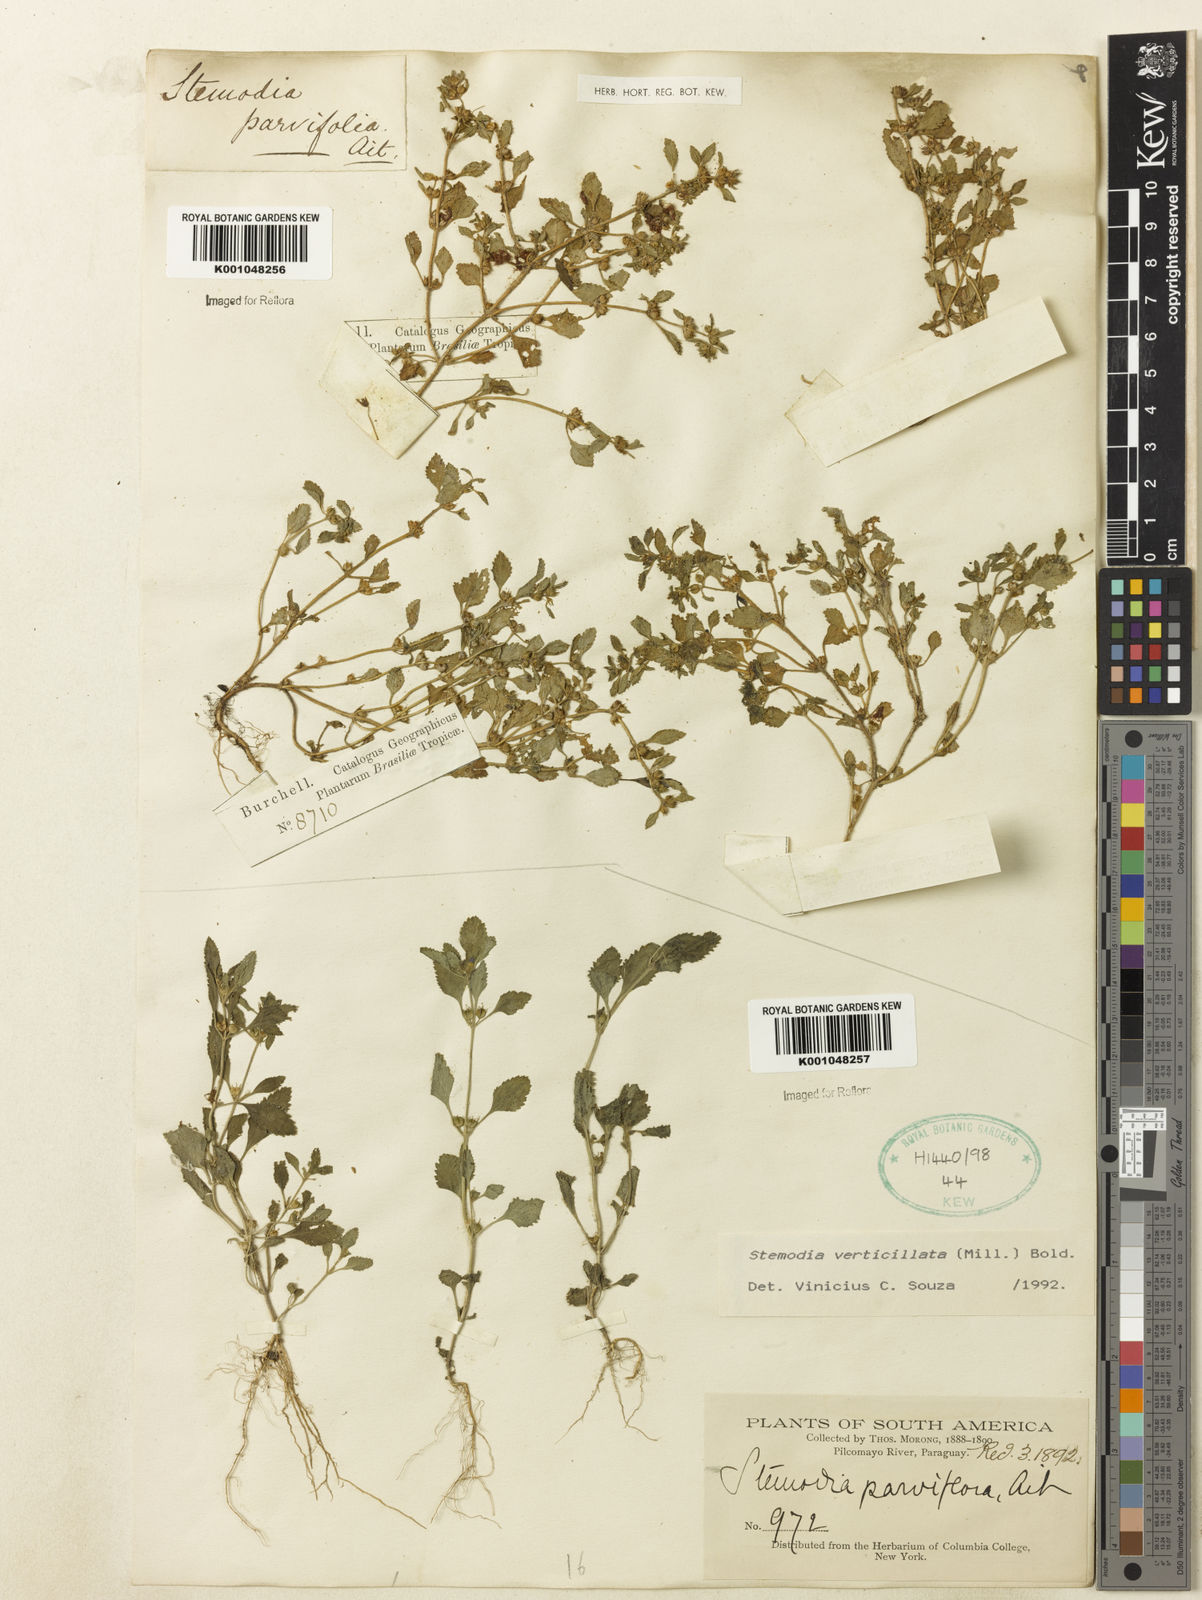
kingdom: Plantae
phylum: Tracheophyta
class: Magnoliopsida
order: Lamiales
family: Plantaginaceae
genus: Stemodia
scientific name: Stemodia verticillata
